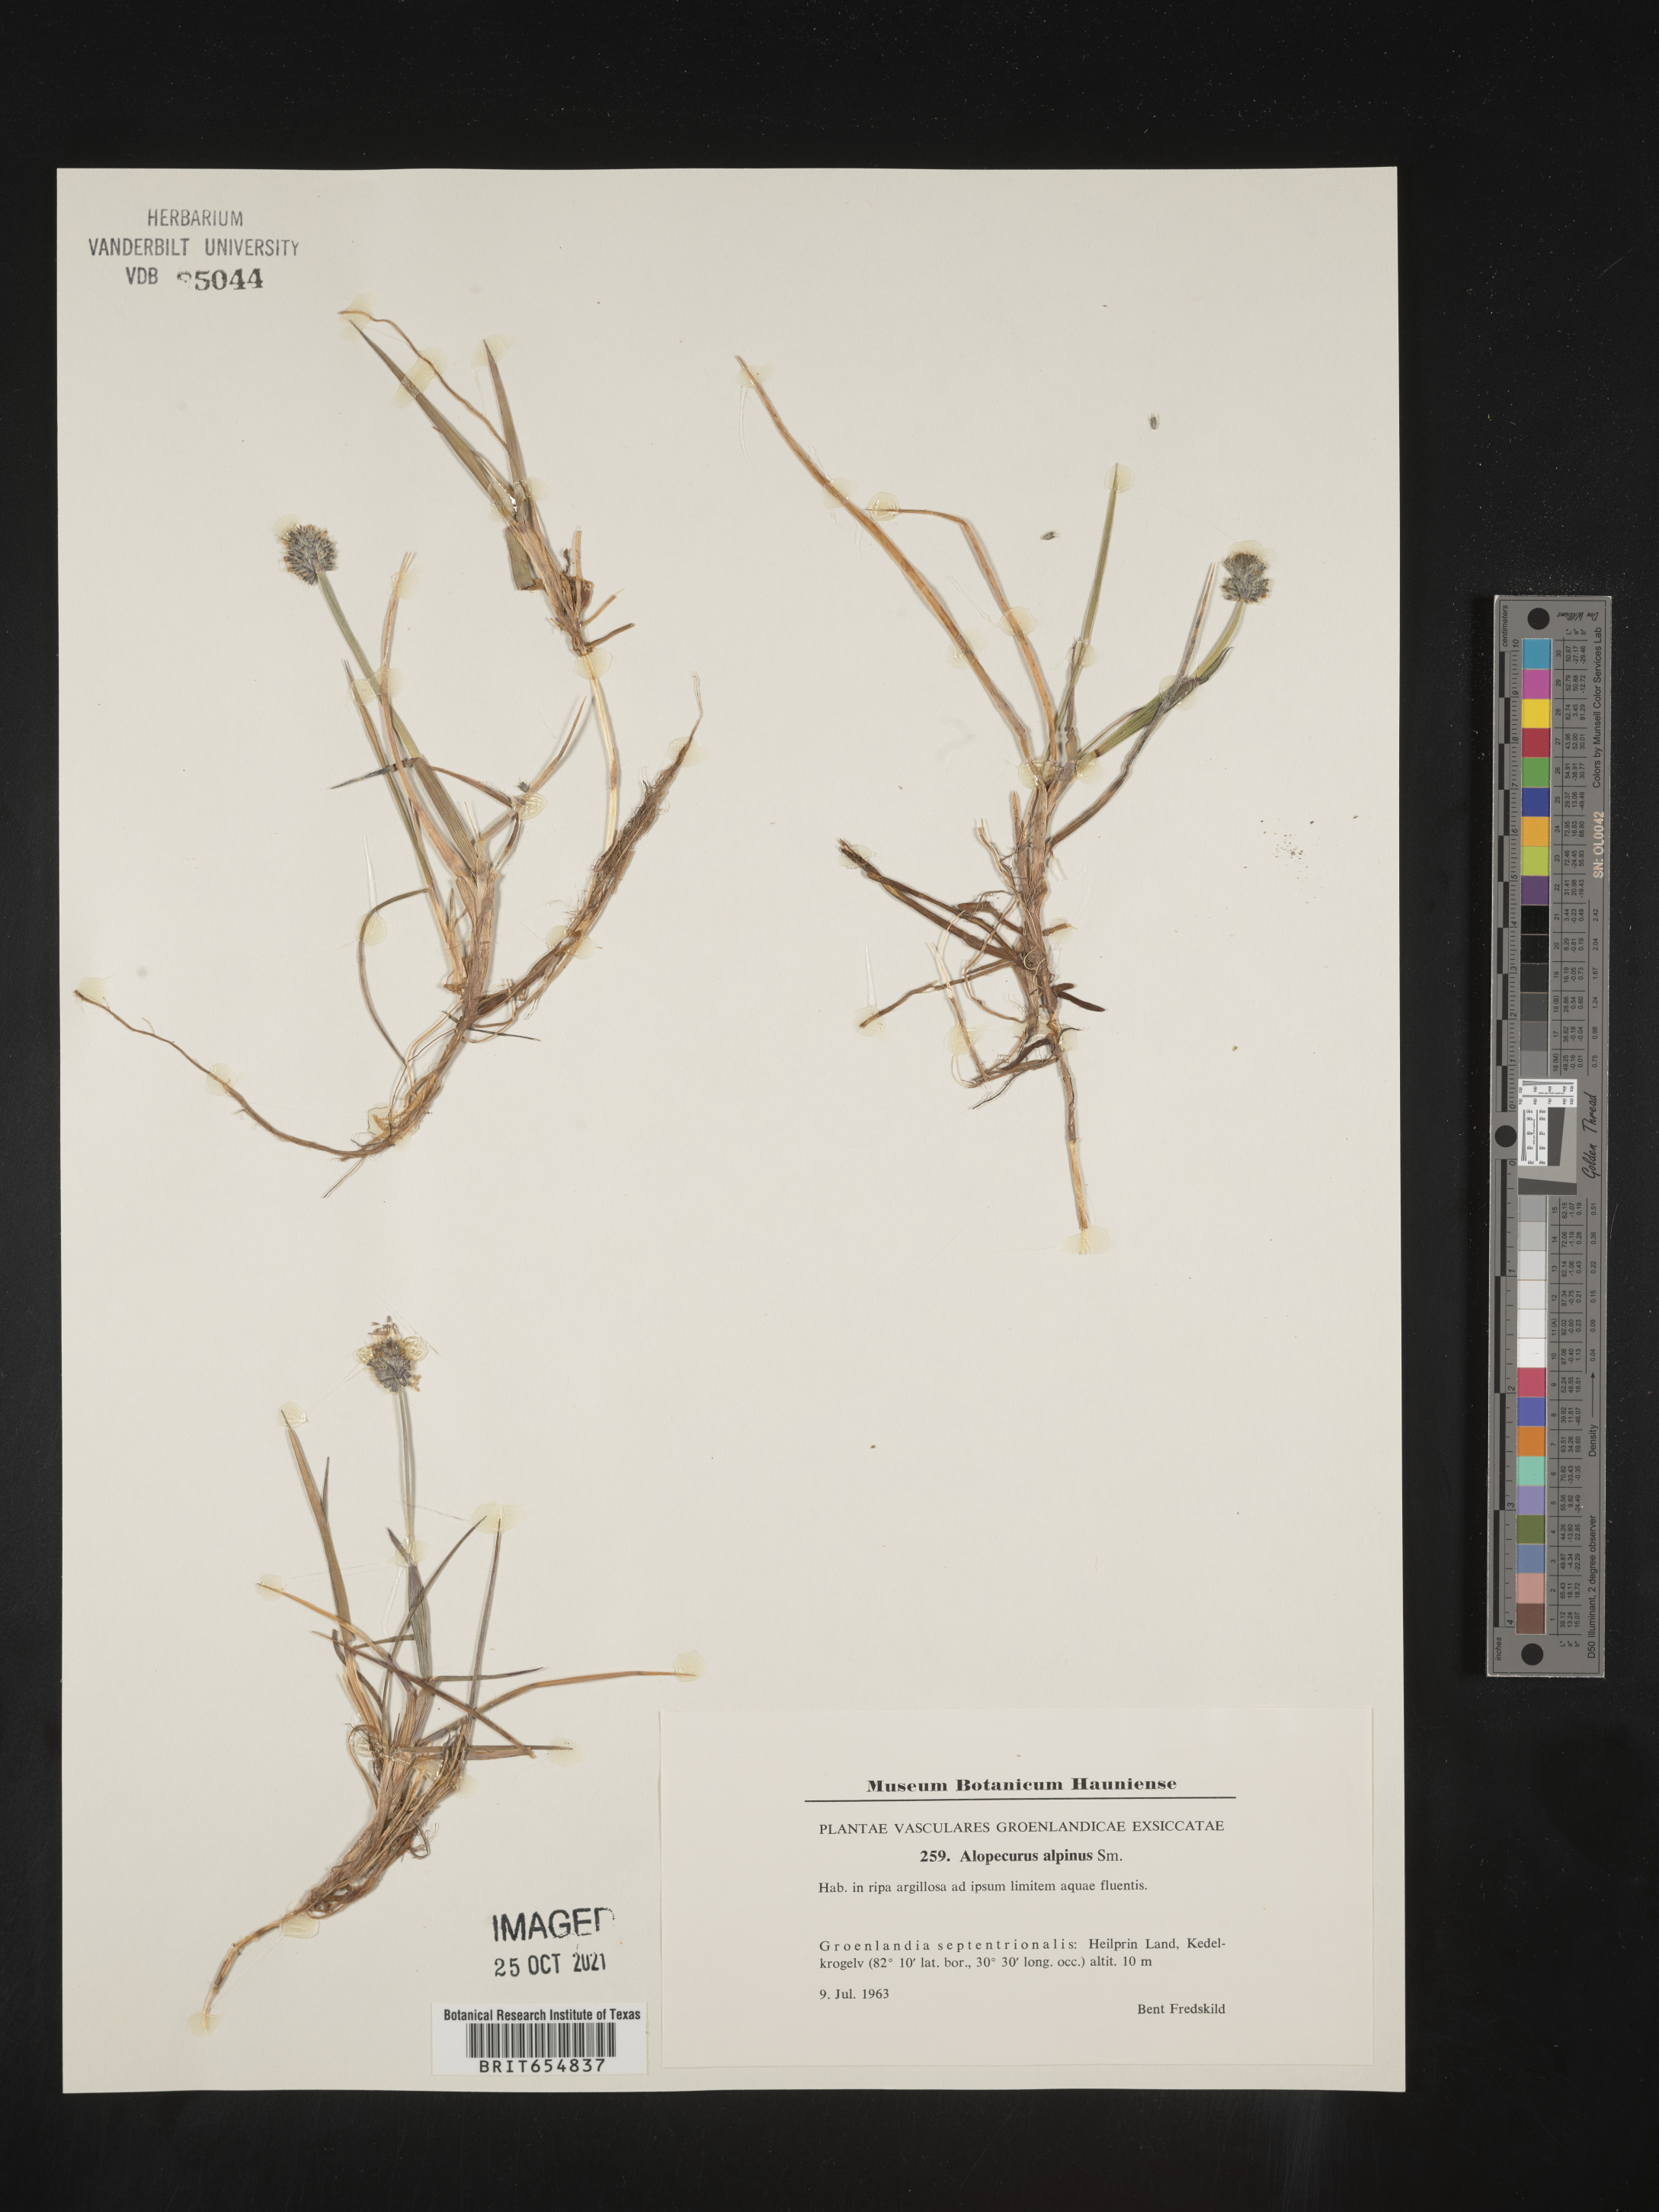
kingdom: Plantae
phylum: Tracheophyta
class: Liliopsida
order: Poales
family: Poaceae
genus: Alopecurus
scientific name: Alopecurus
